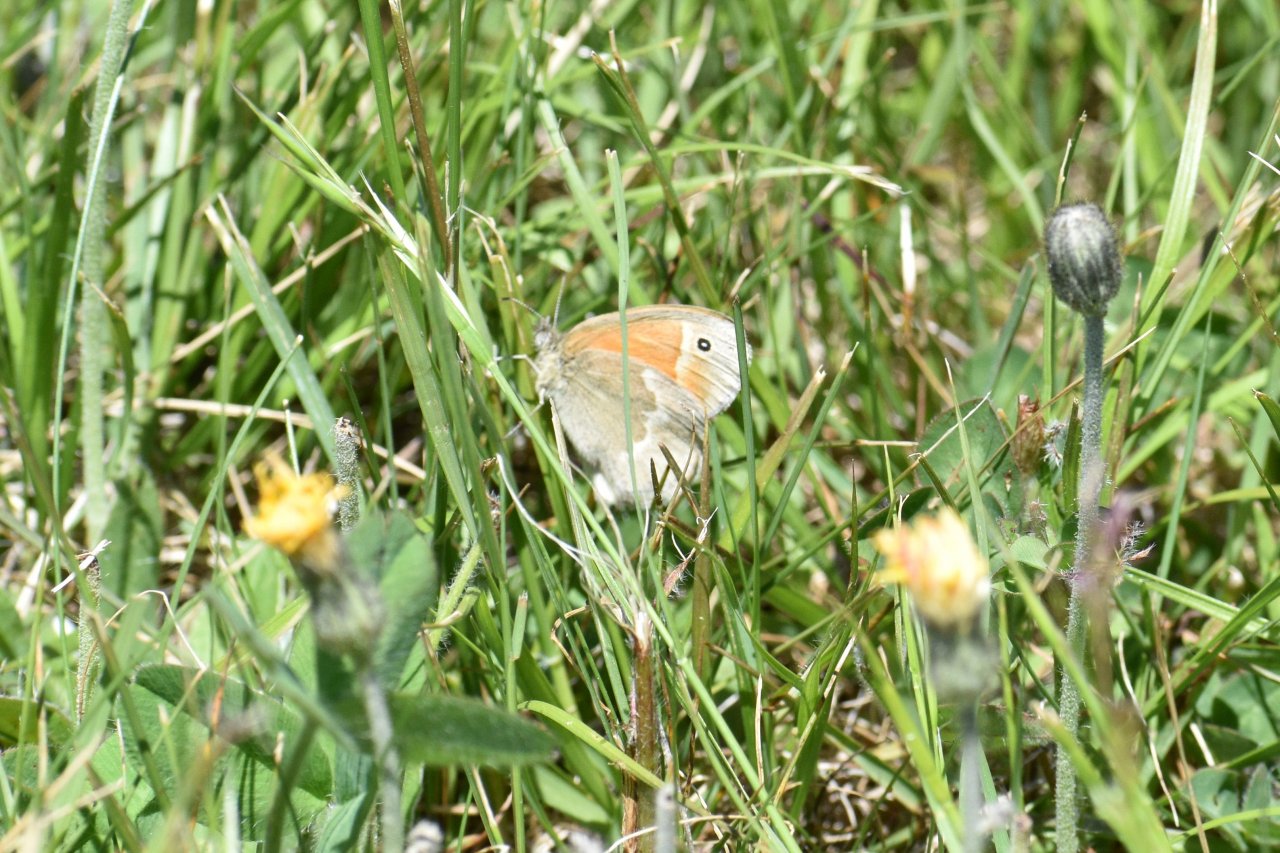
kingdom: Animalia
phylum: Arthropoda
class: Insecta
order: Lepidoptera
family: Nymphalidae
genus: Coenonympha
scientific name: Coenonympha tullia
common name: Large Heath
